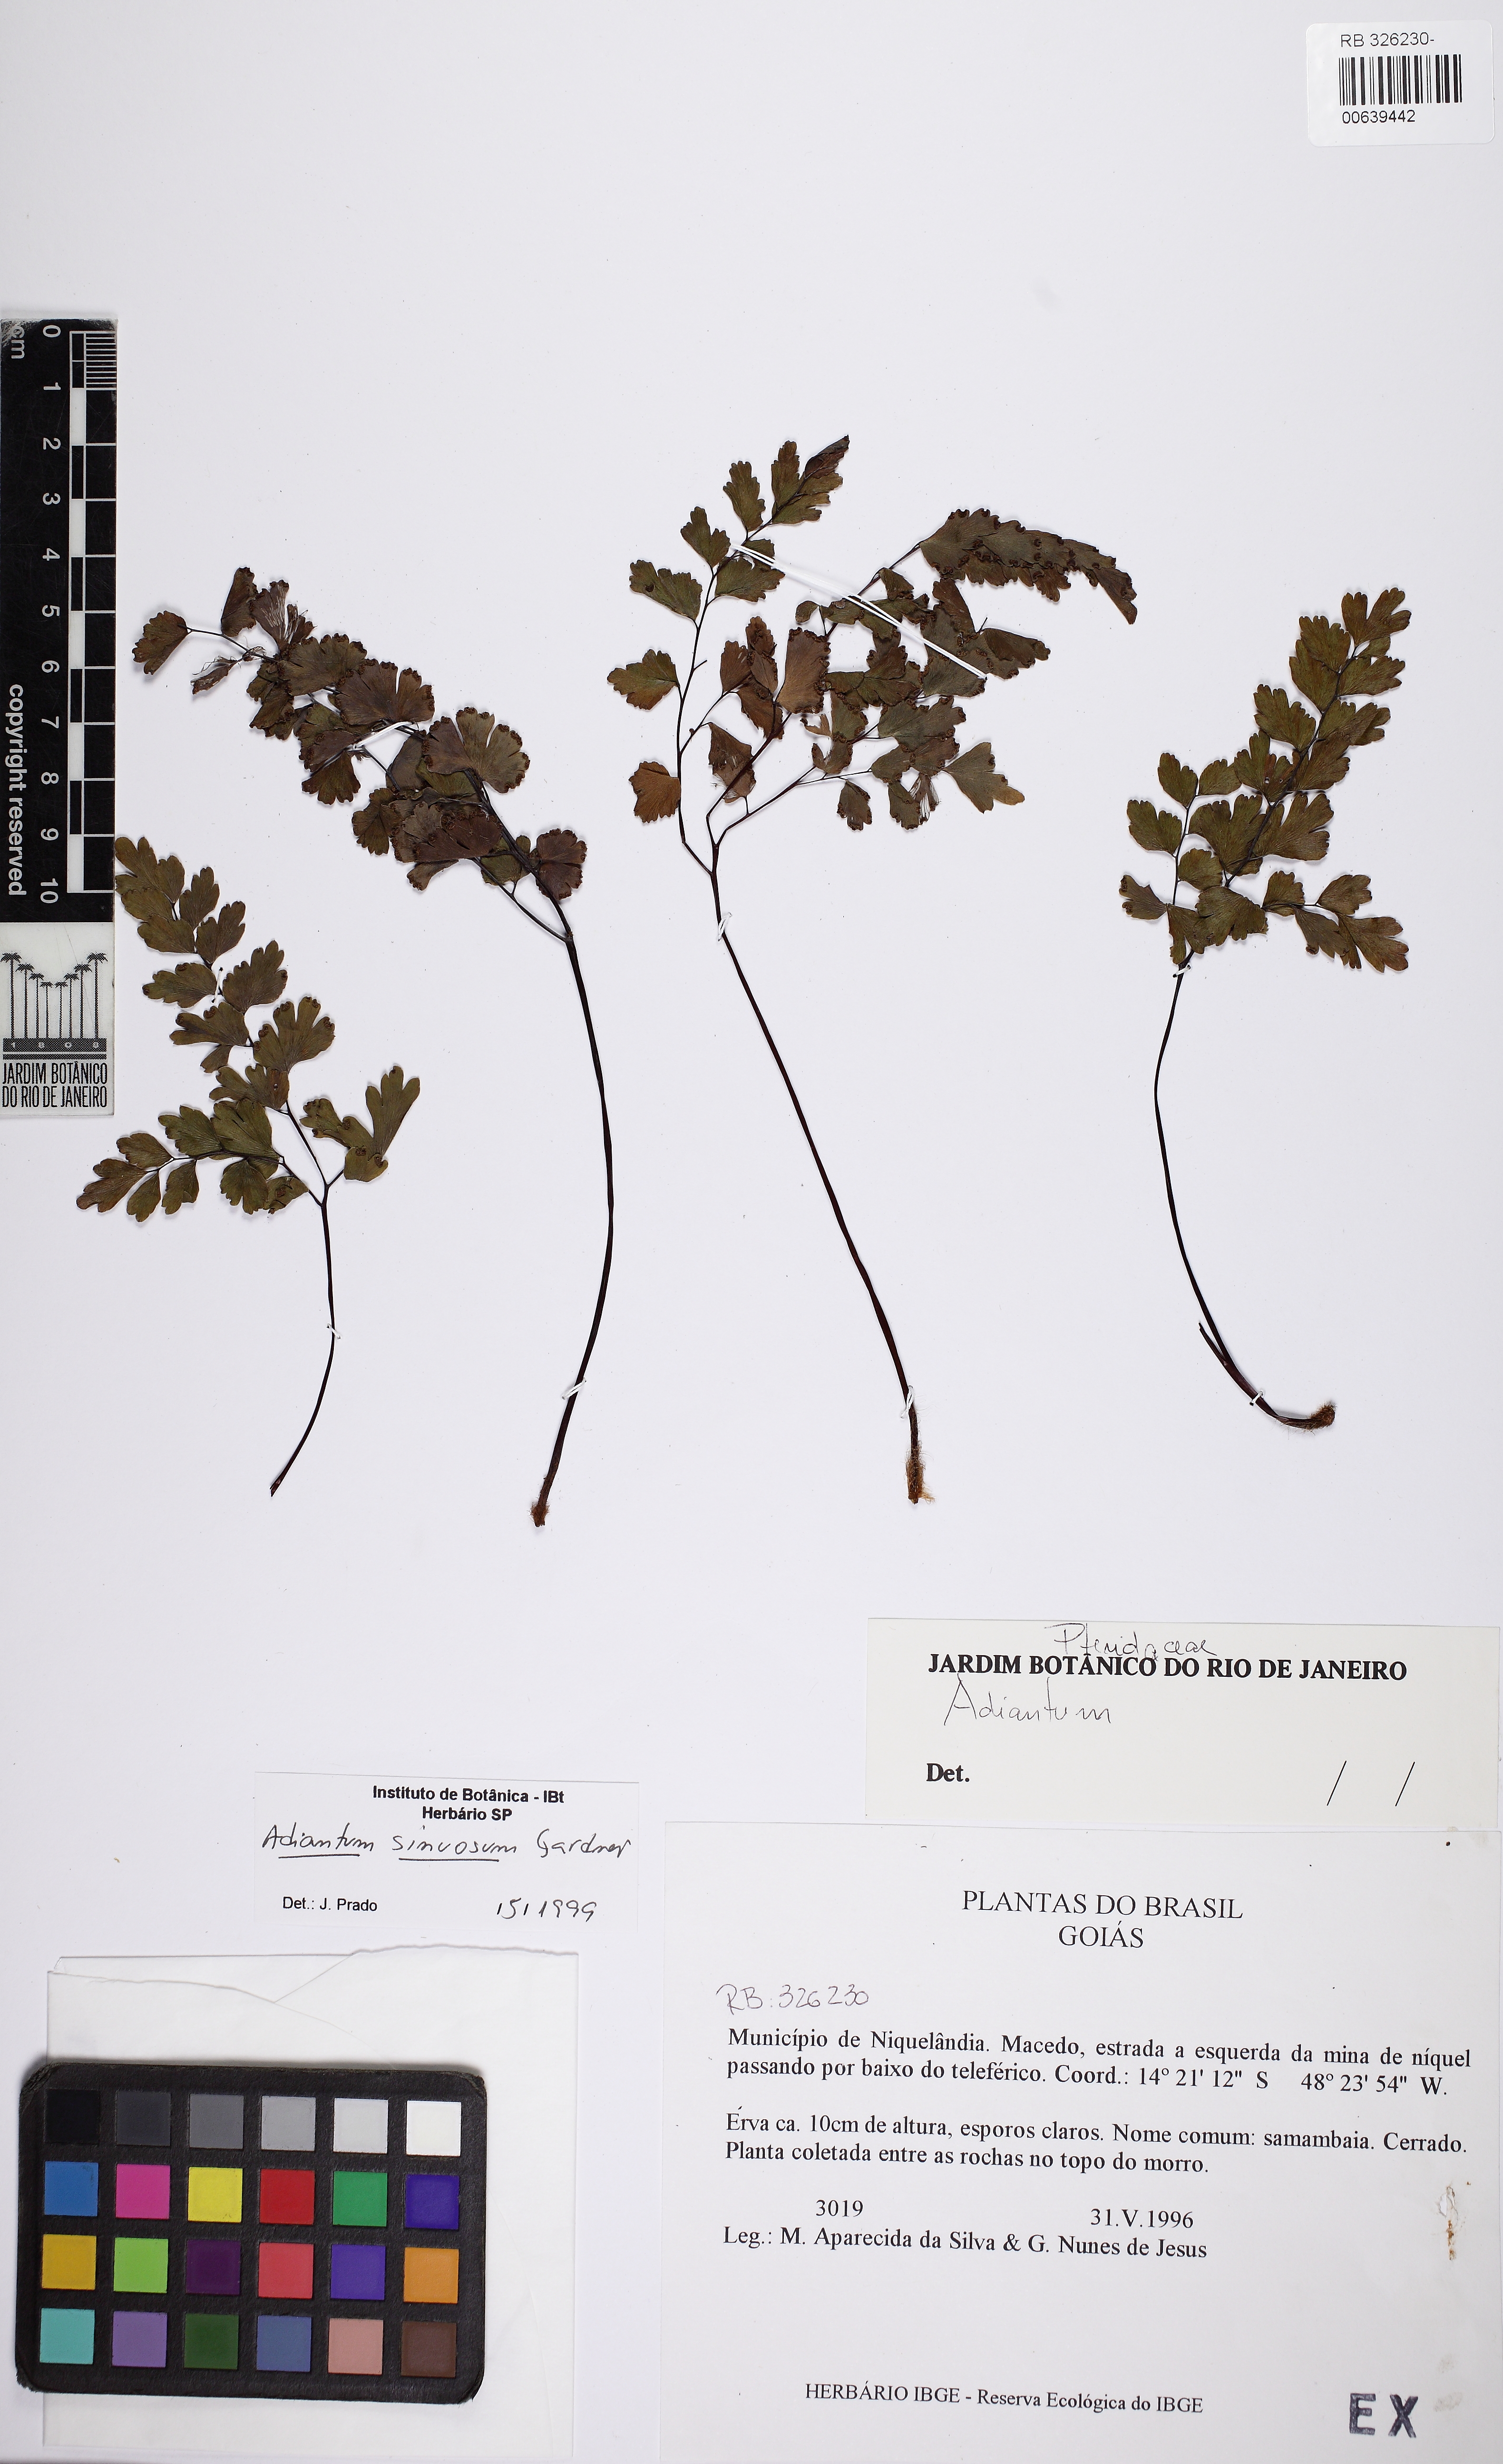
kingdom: Plantae
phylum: Tracheophyta
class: Polypodiopsida
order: Polypodiales
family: Pteridaceae
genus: Adiantum
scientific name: Adiantum sinuosum
